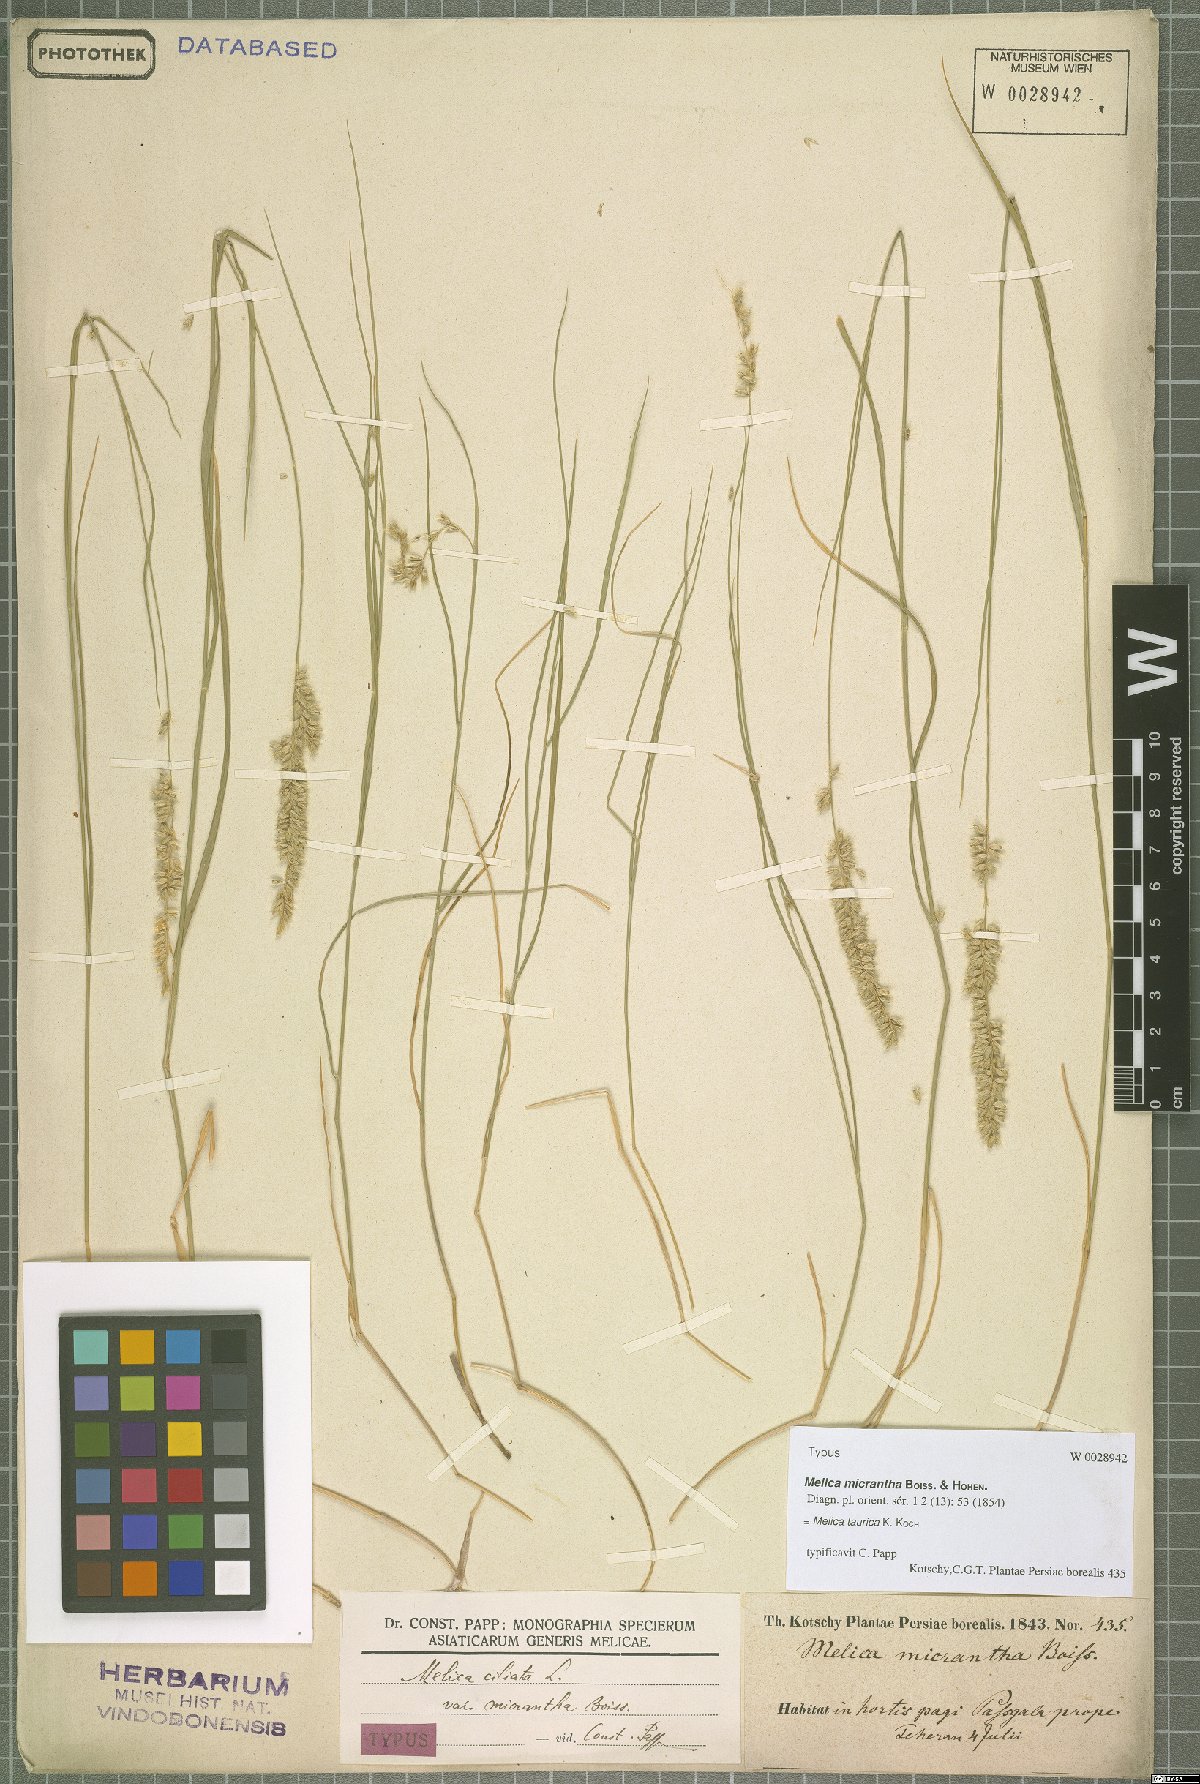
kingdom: Plantae
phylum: Tracheophyta
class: Liliopsida
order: Poales
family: Poaceae
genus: Melica
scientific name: Melica ciliata
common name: Hairy melicgrass
